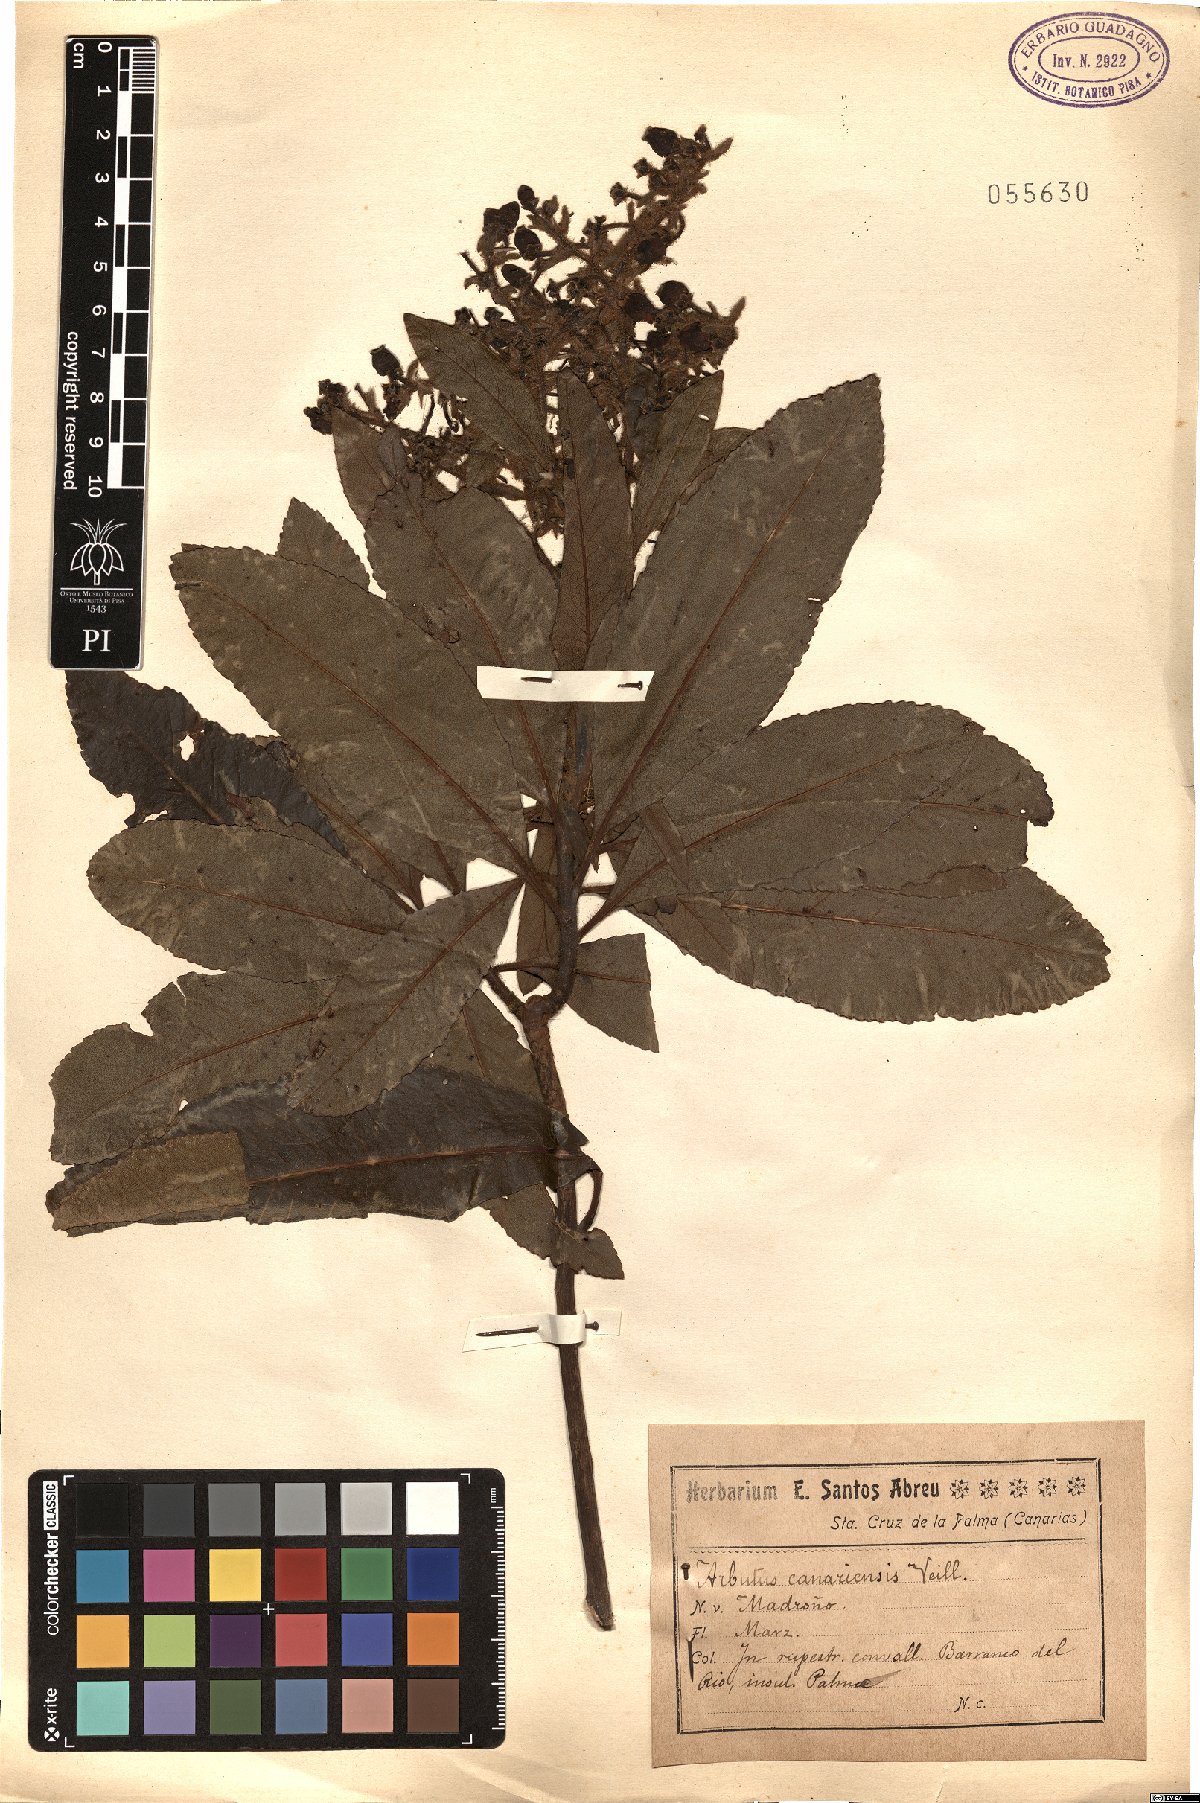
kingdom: Plantae
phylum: Tracheophyta
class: Magnoliopsida
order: Ericales
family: Ericaceae
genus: Arbutus
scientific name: Arbutus canariensis
